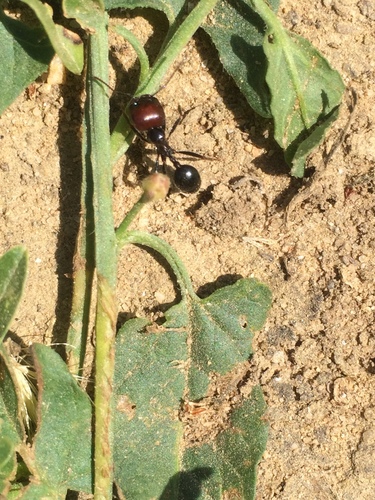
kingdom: Animalia
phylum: Arthropoda
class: Insecta
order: Hymenoptera
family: Formicidae
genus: Messor
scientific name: Messor barbarus
